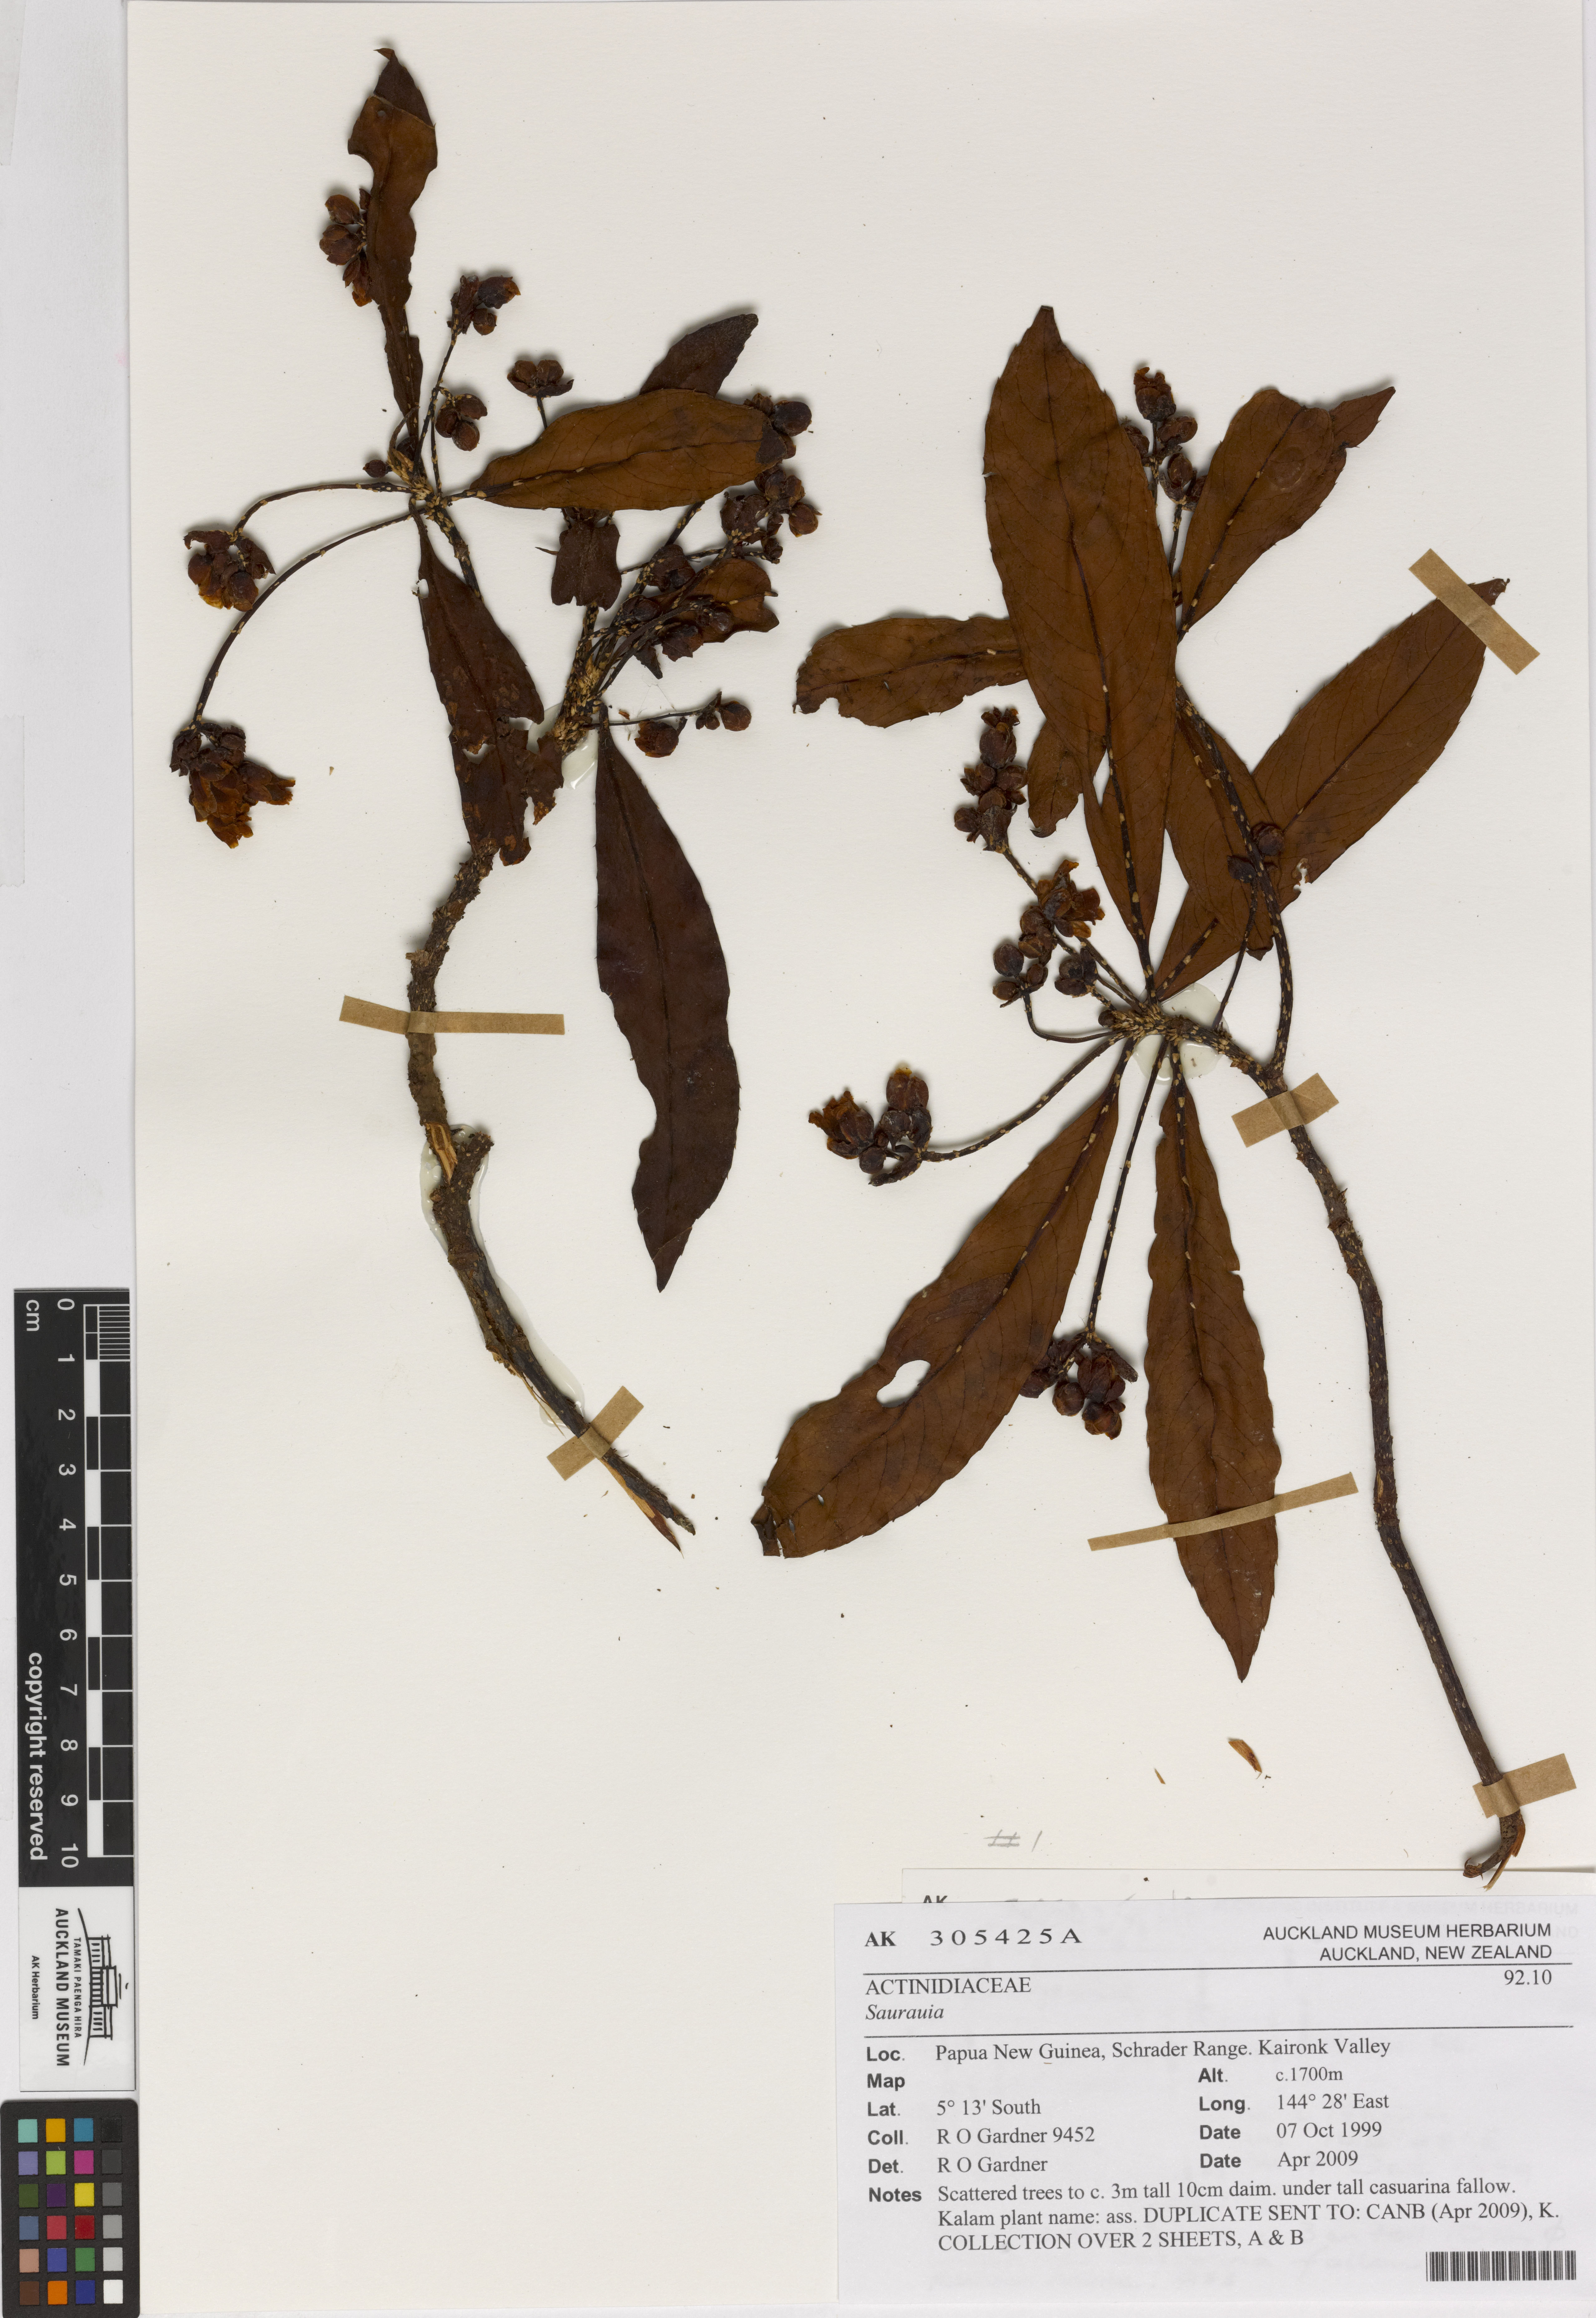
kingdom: Plantae
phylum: Tracheophyta
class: Magnoliopsida
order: Ericales
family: Actinidiaceae
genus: Saurauia
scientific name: Saurauia
